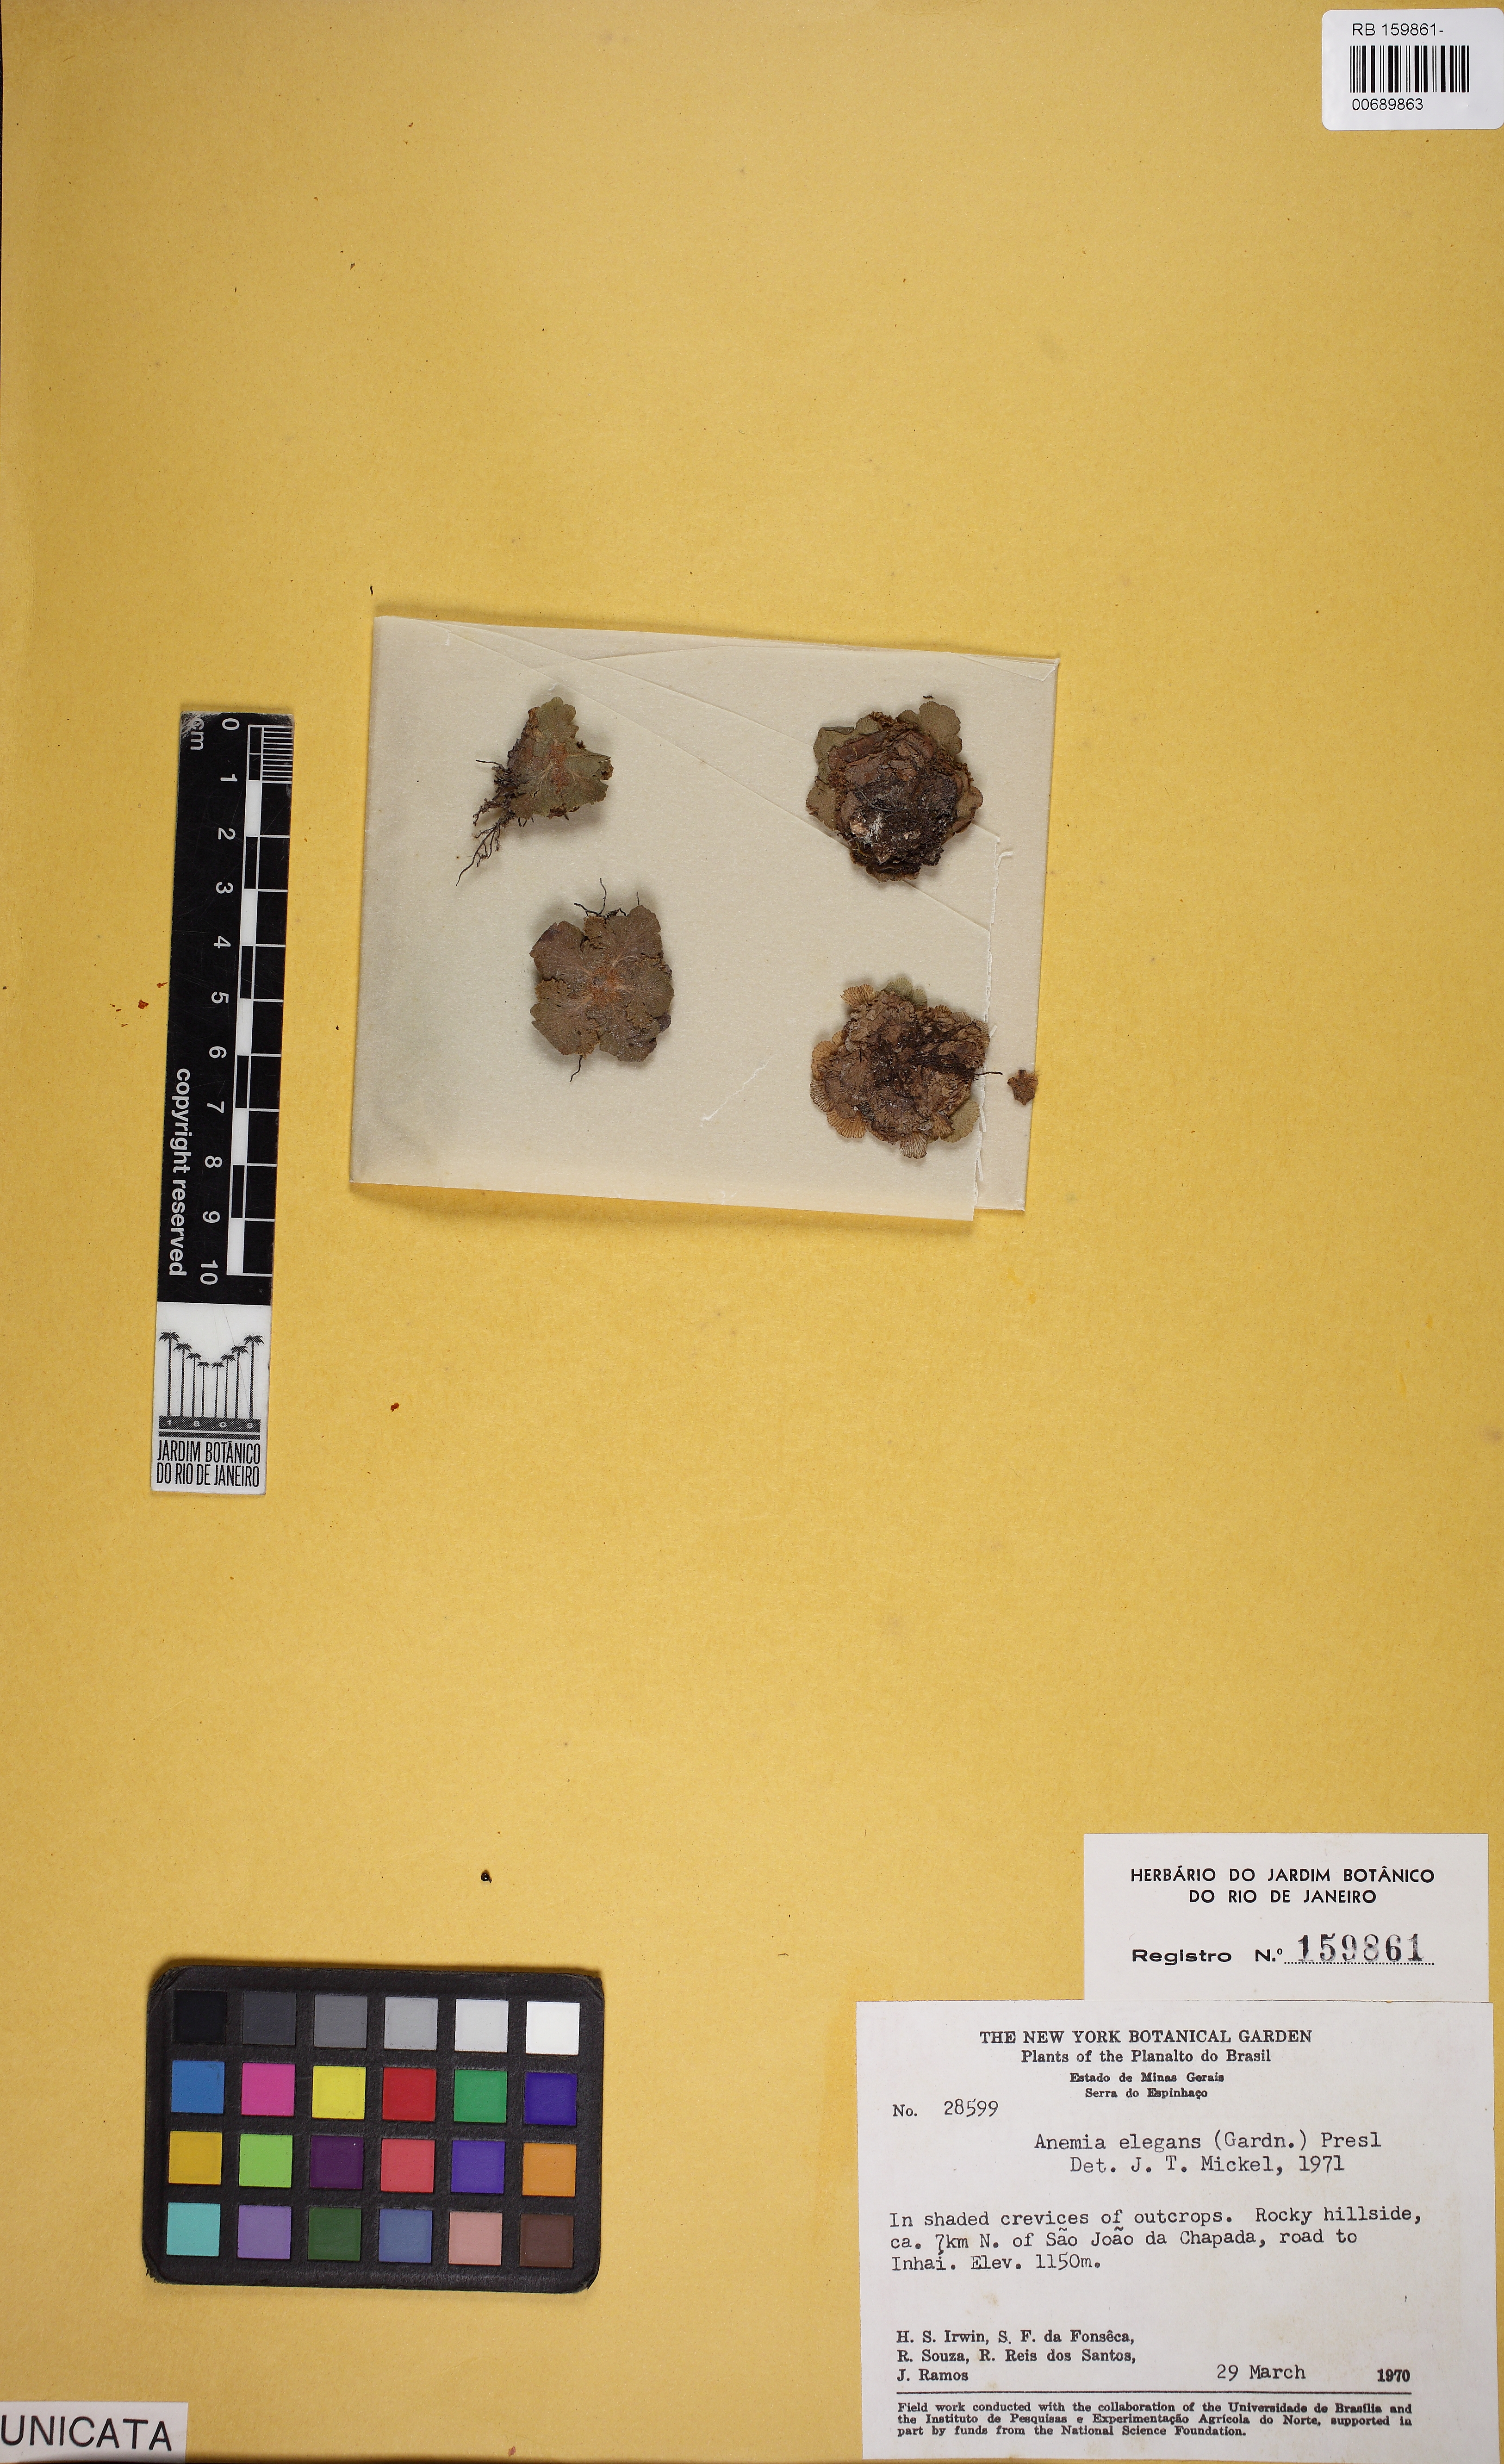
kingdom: Plantae
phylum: Tracheophyta
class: Polypodiopsida
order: Schizaeales
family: Anemiaceae
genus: Anemia
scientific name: Anemia elegans
